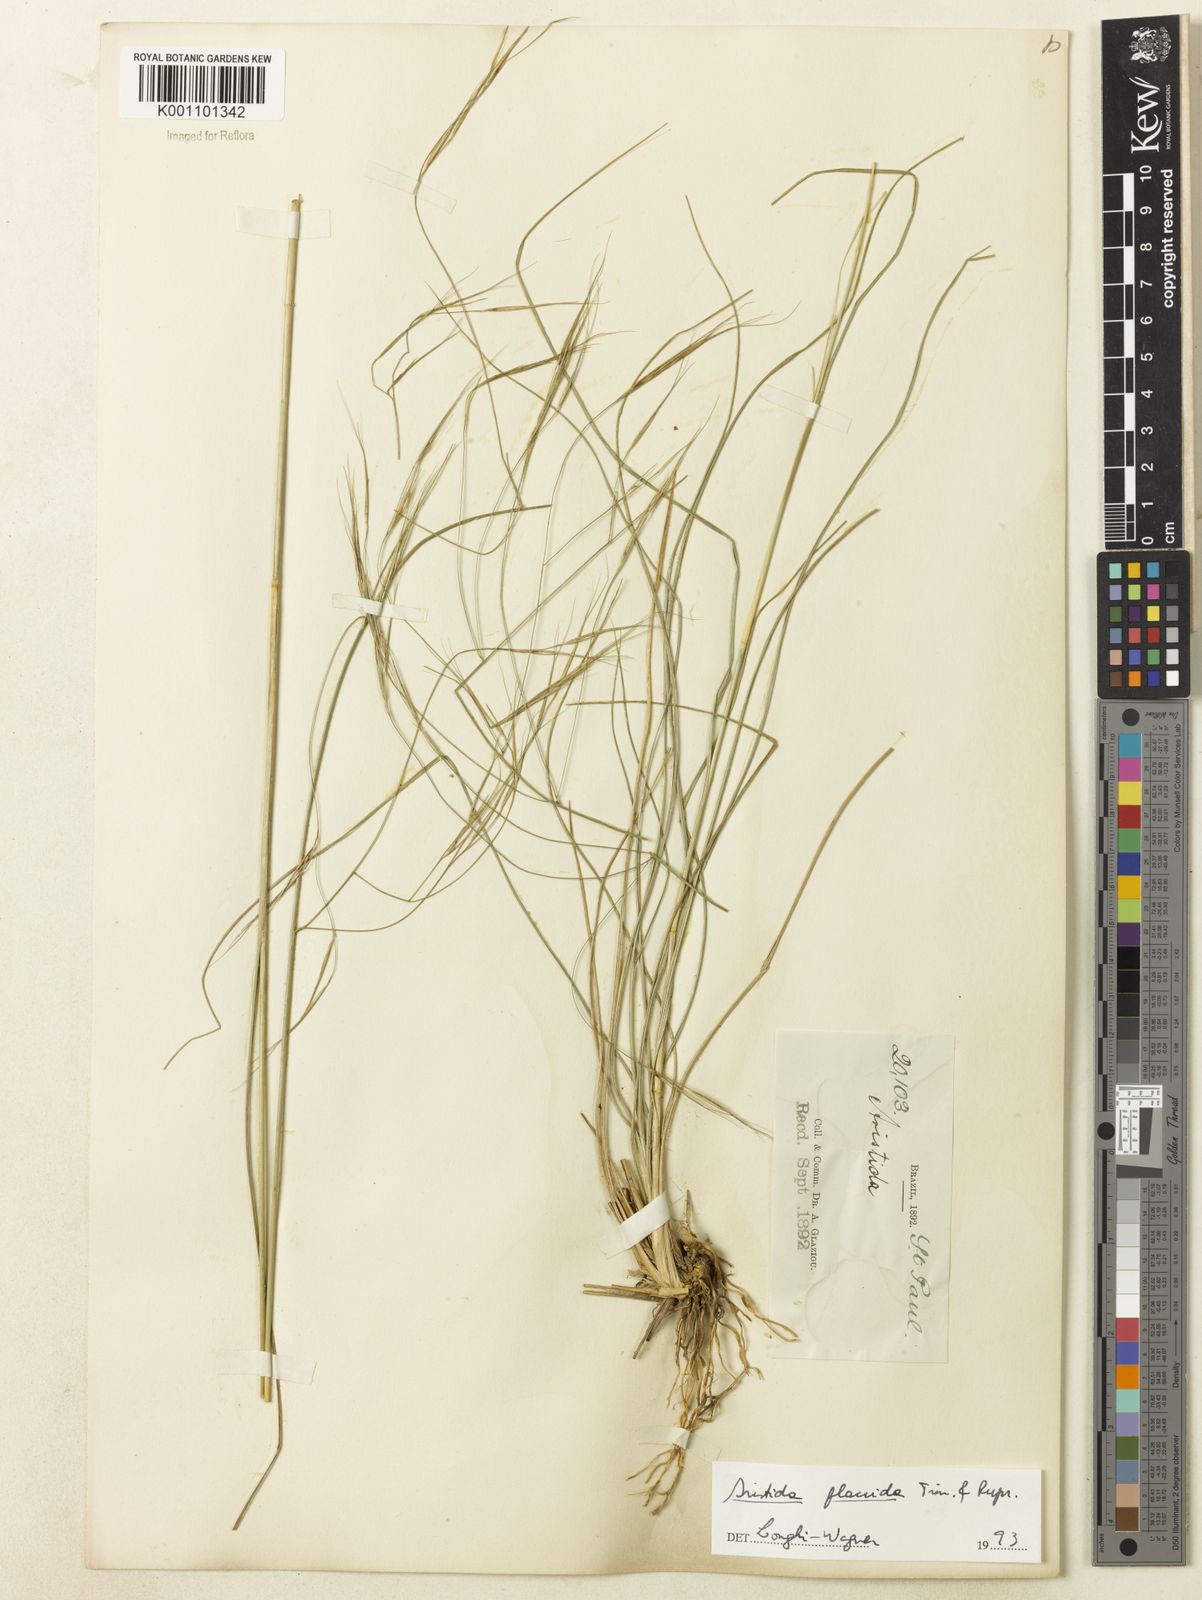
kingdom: Plantae
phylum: Tracheophyta
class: Liliopsida
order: Poales
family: Poaceae
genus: Aristida
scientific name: Aristida flaccida
